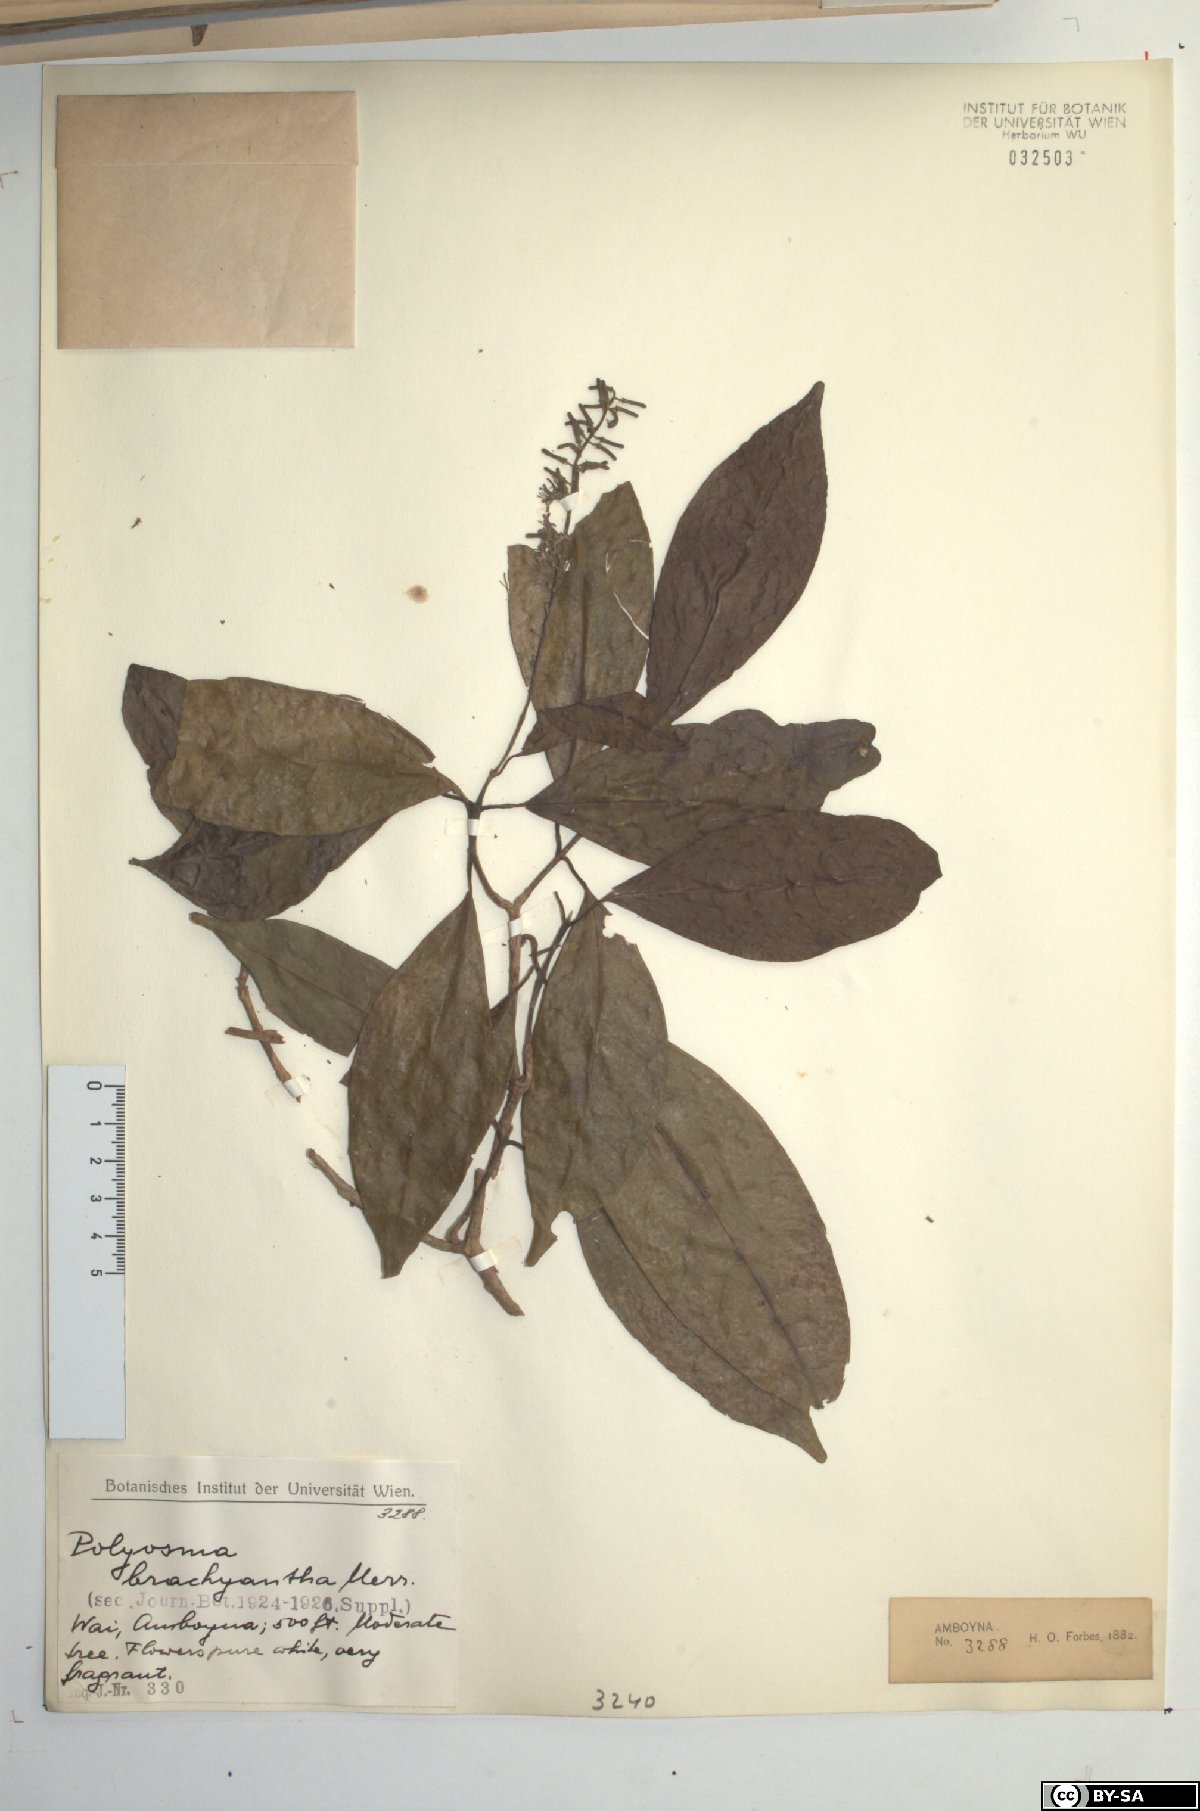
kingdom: Plantae
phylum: Tracheophyta
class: Magnoliopsida
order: Escalloniales
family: Escalloniaceae
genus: Polyosma
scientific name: Polyosma integrifolia
